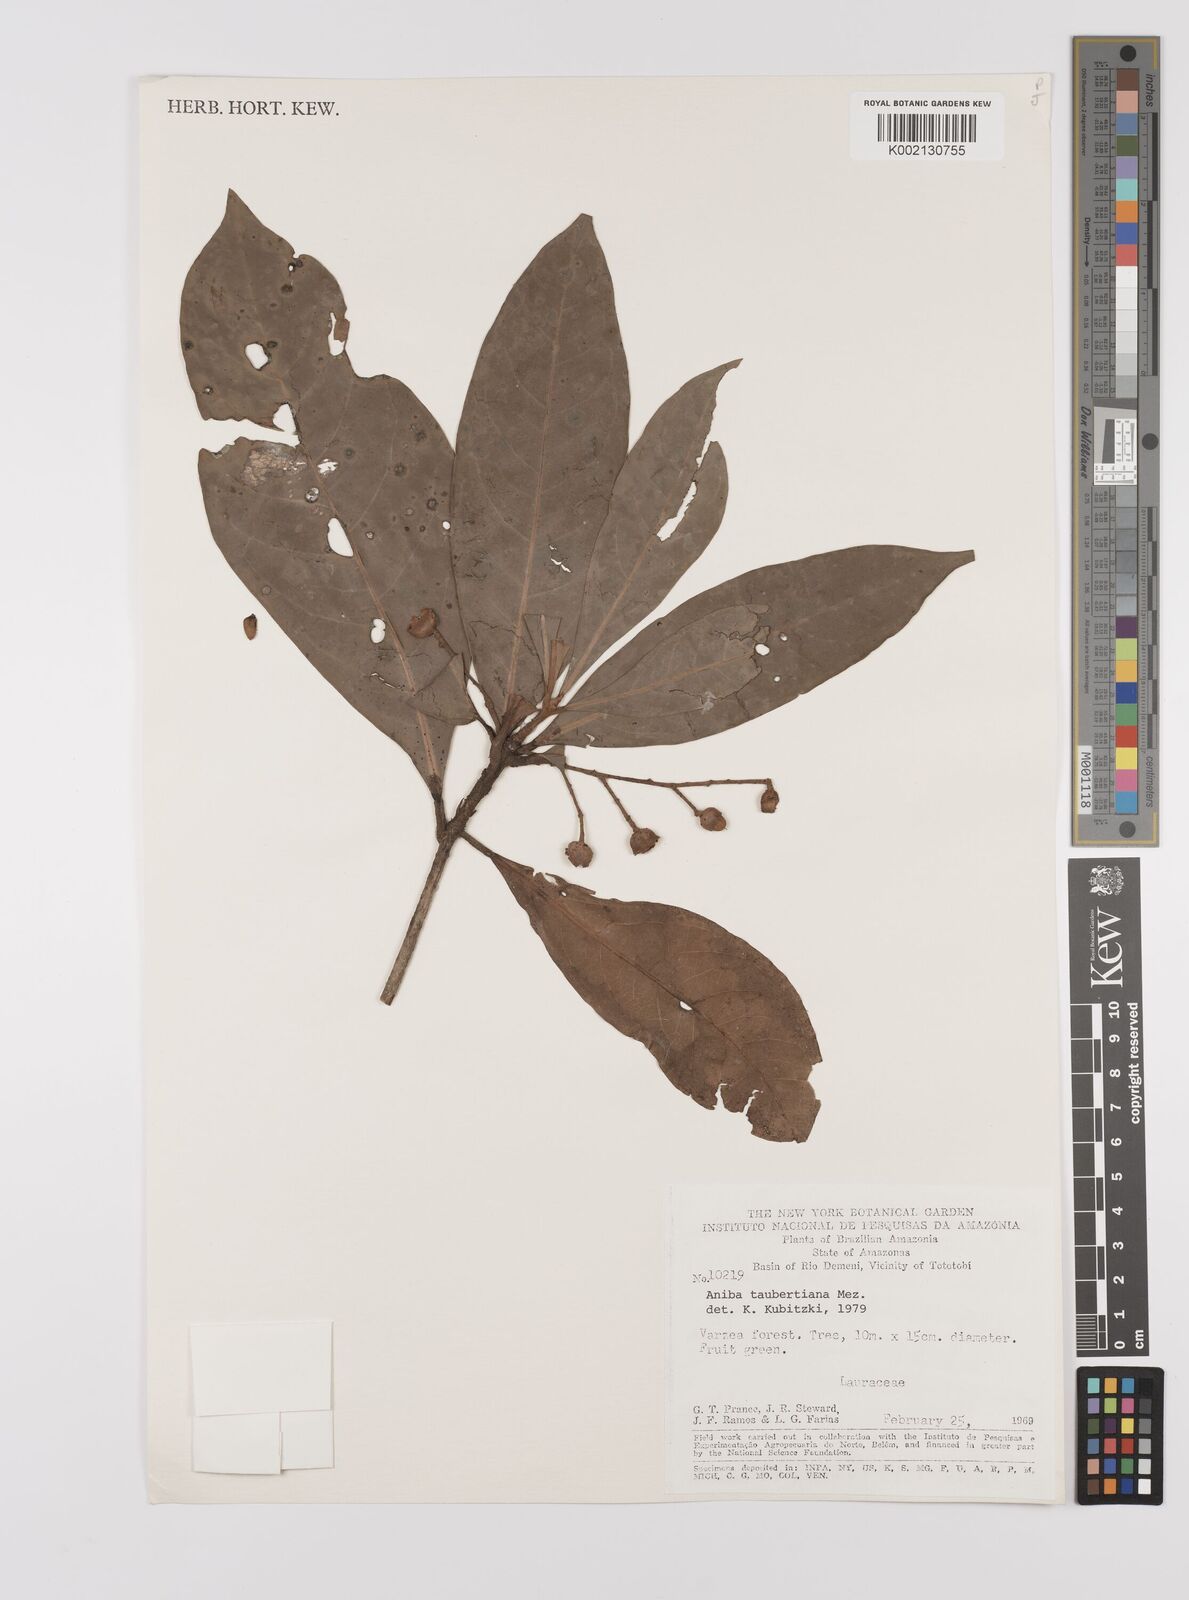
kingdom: Plantae
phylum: Tracheophyta
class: Magnoliopsida
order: Laurales
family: Lauraceae
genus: Aniba
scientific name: Aniba taubertiana
